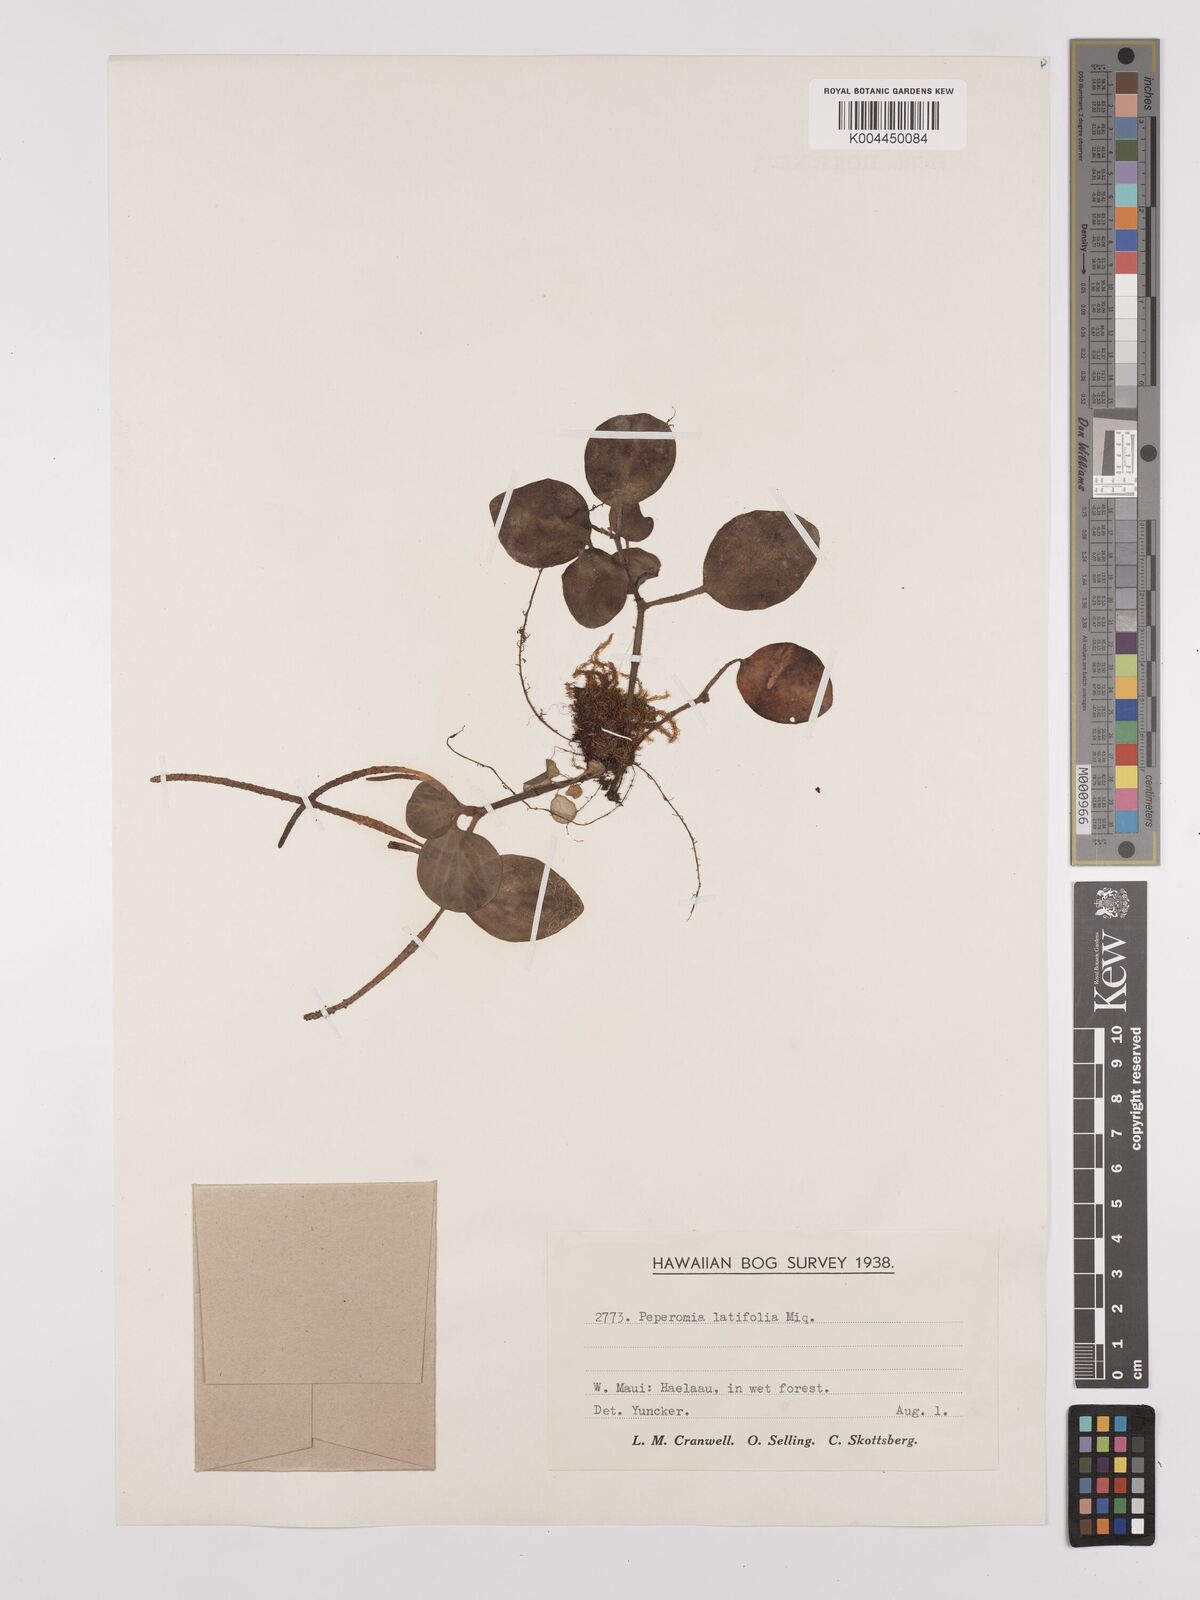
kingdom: Plantae
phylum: Tracheophyta
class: Magnoliopsida
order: Piperales
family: Piperaceae
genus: Peperomia
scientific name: Peperomia latifolia
